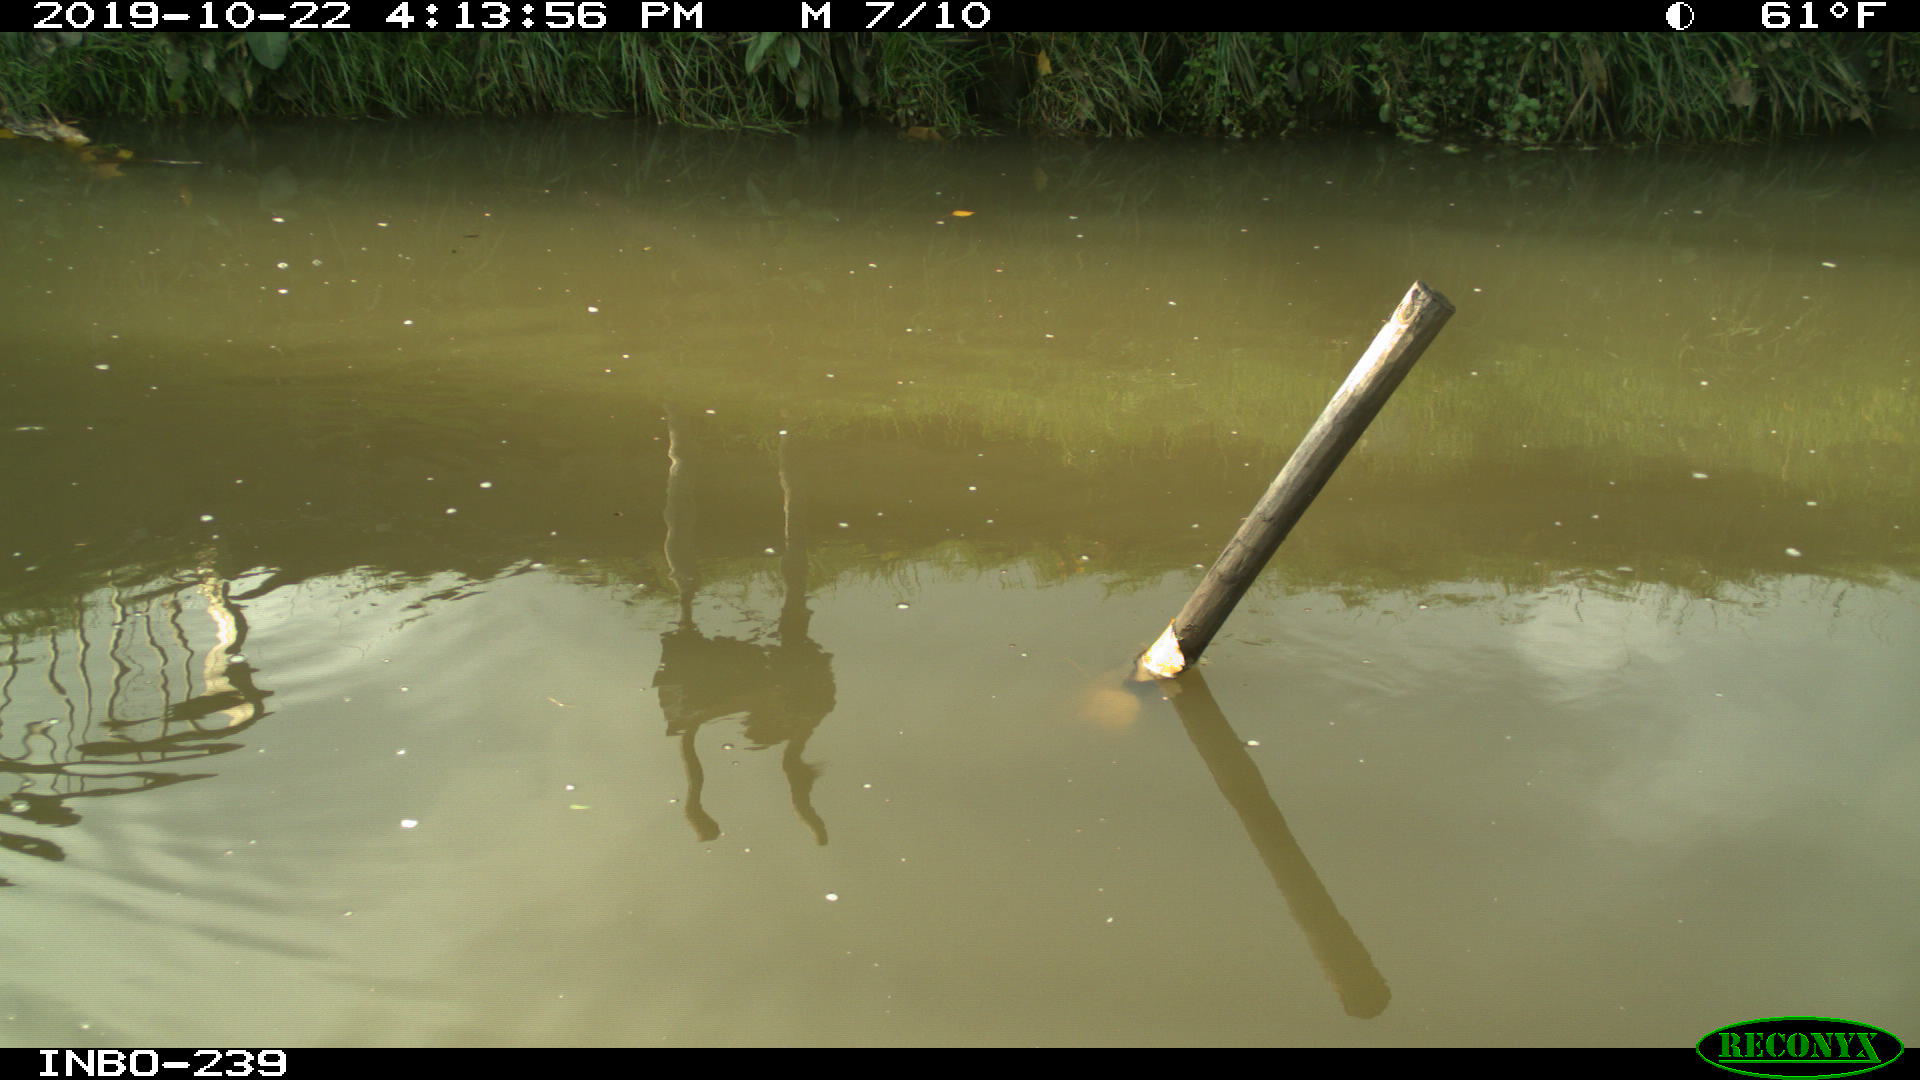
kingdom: Animalia
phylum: Chordata
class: Aves
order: Gruiformes
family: Rallidae
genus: Gallinula
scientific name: Gallinula chloropus
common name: Common moorhen
